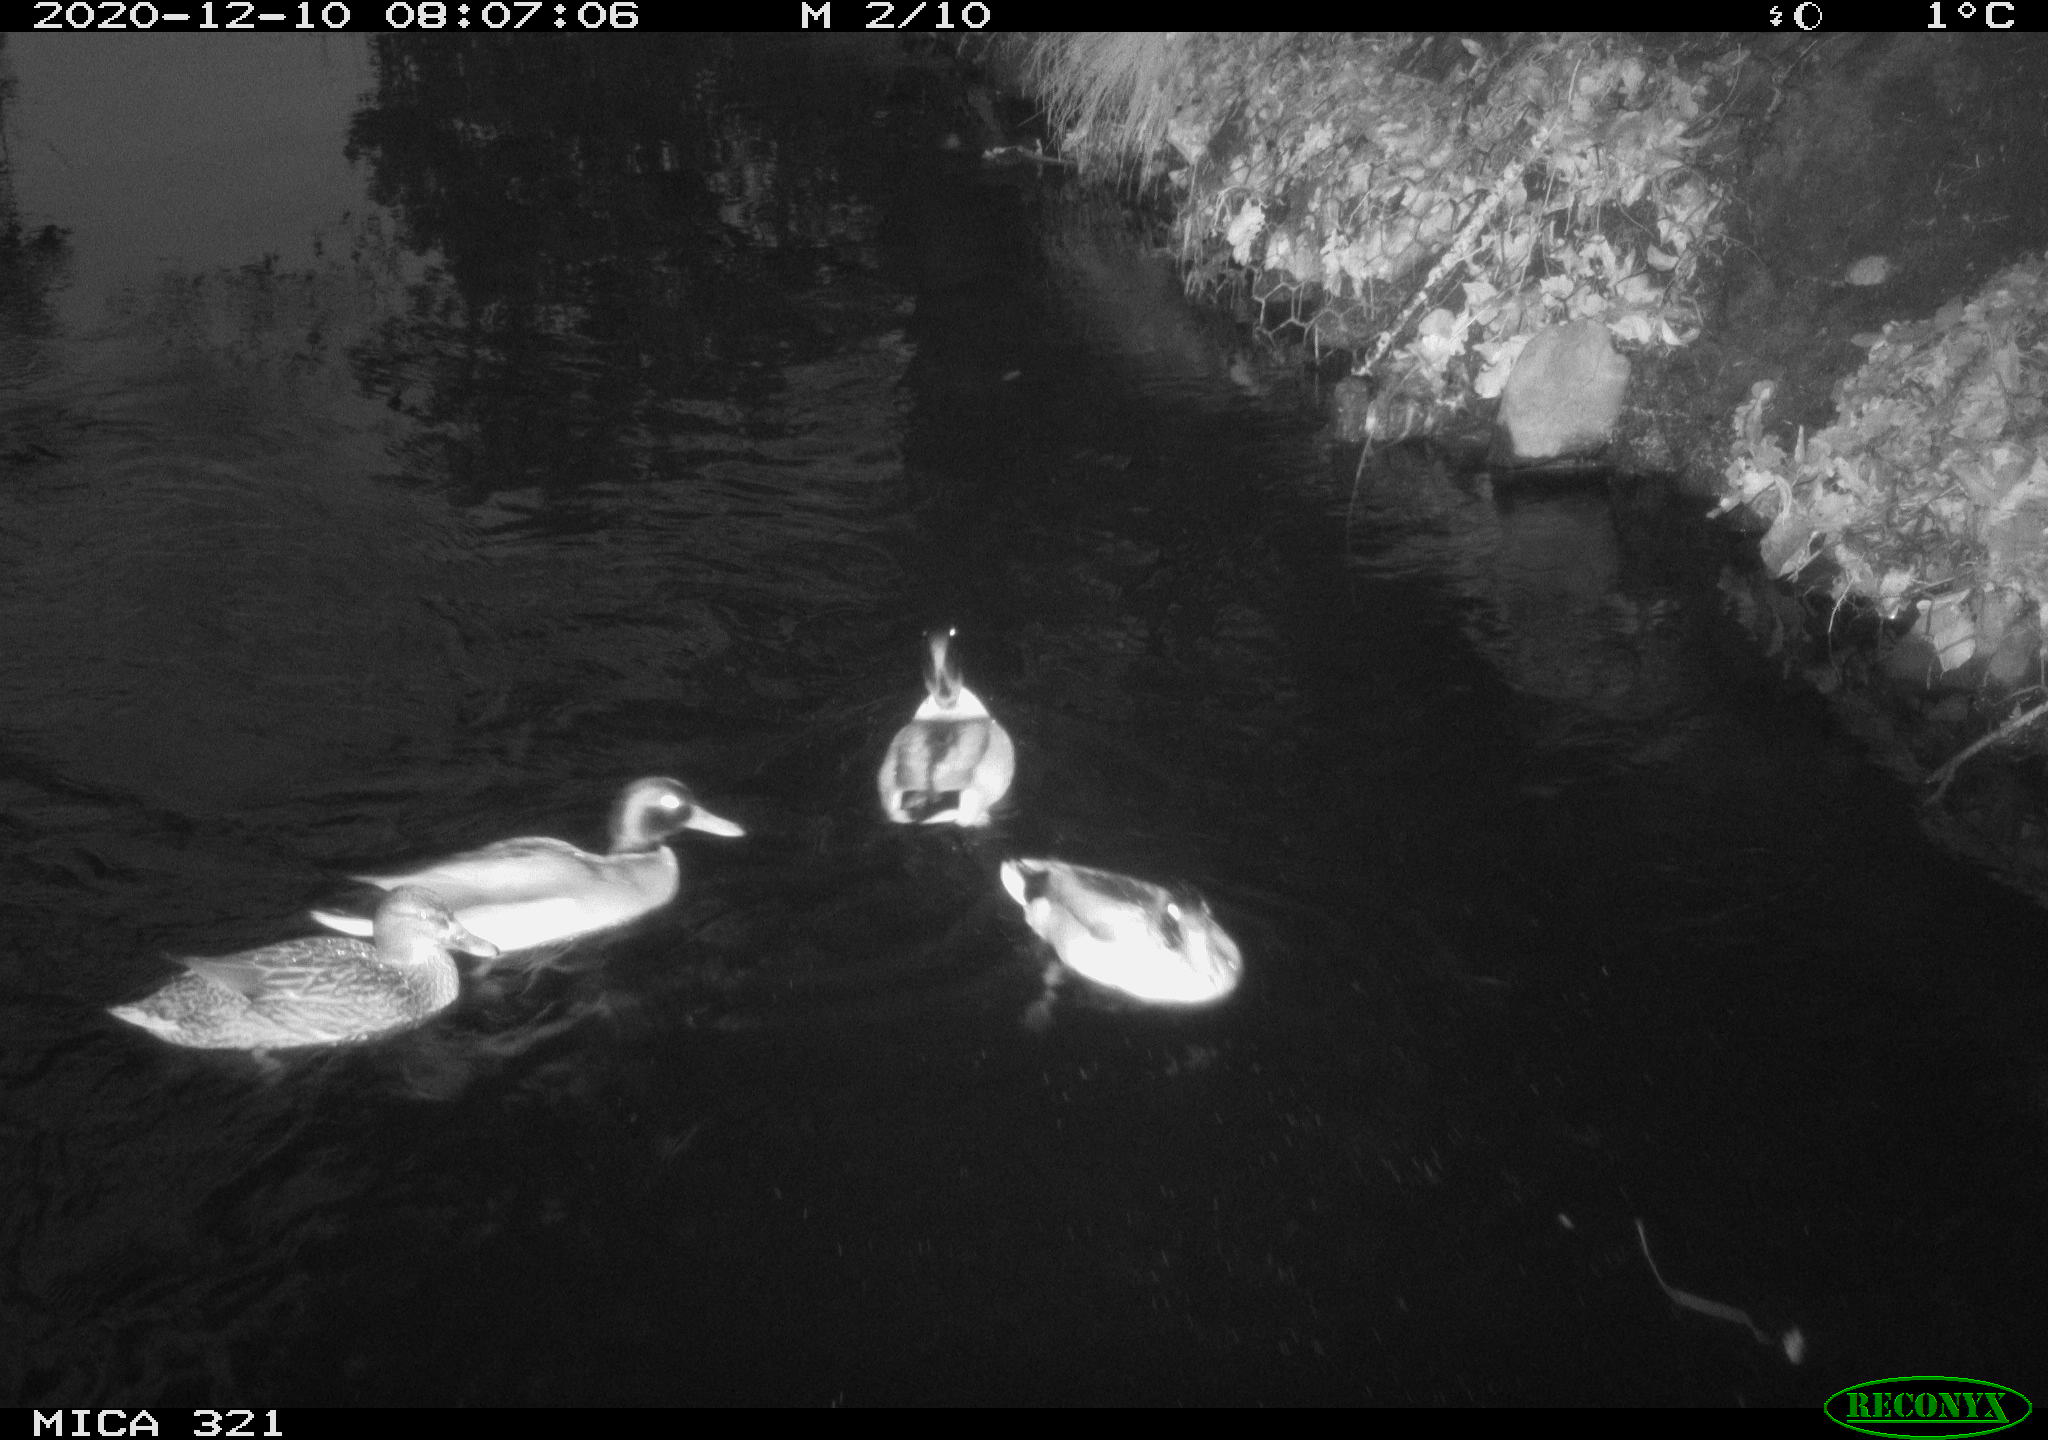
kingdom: Animalia
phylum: Chordata
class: Aves
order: Anseriformes
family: Anatidae
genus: Anas
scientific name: Anas platyrhynchos
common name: Mallard
